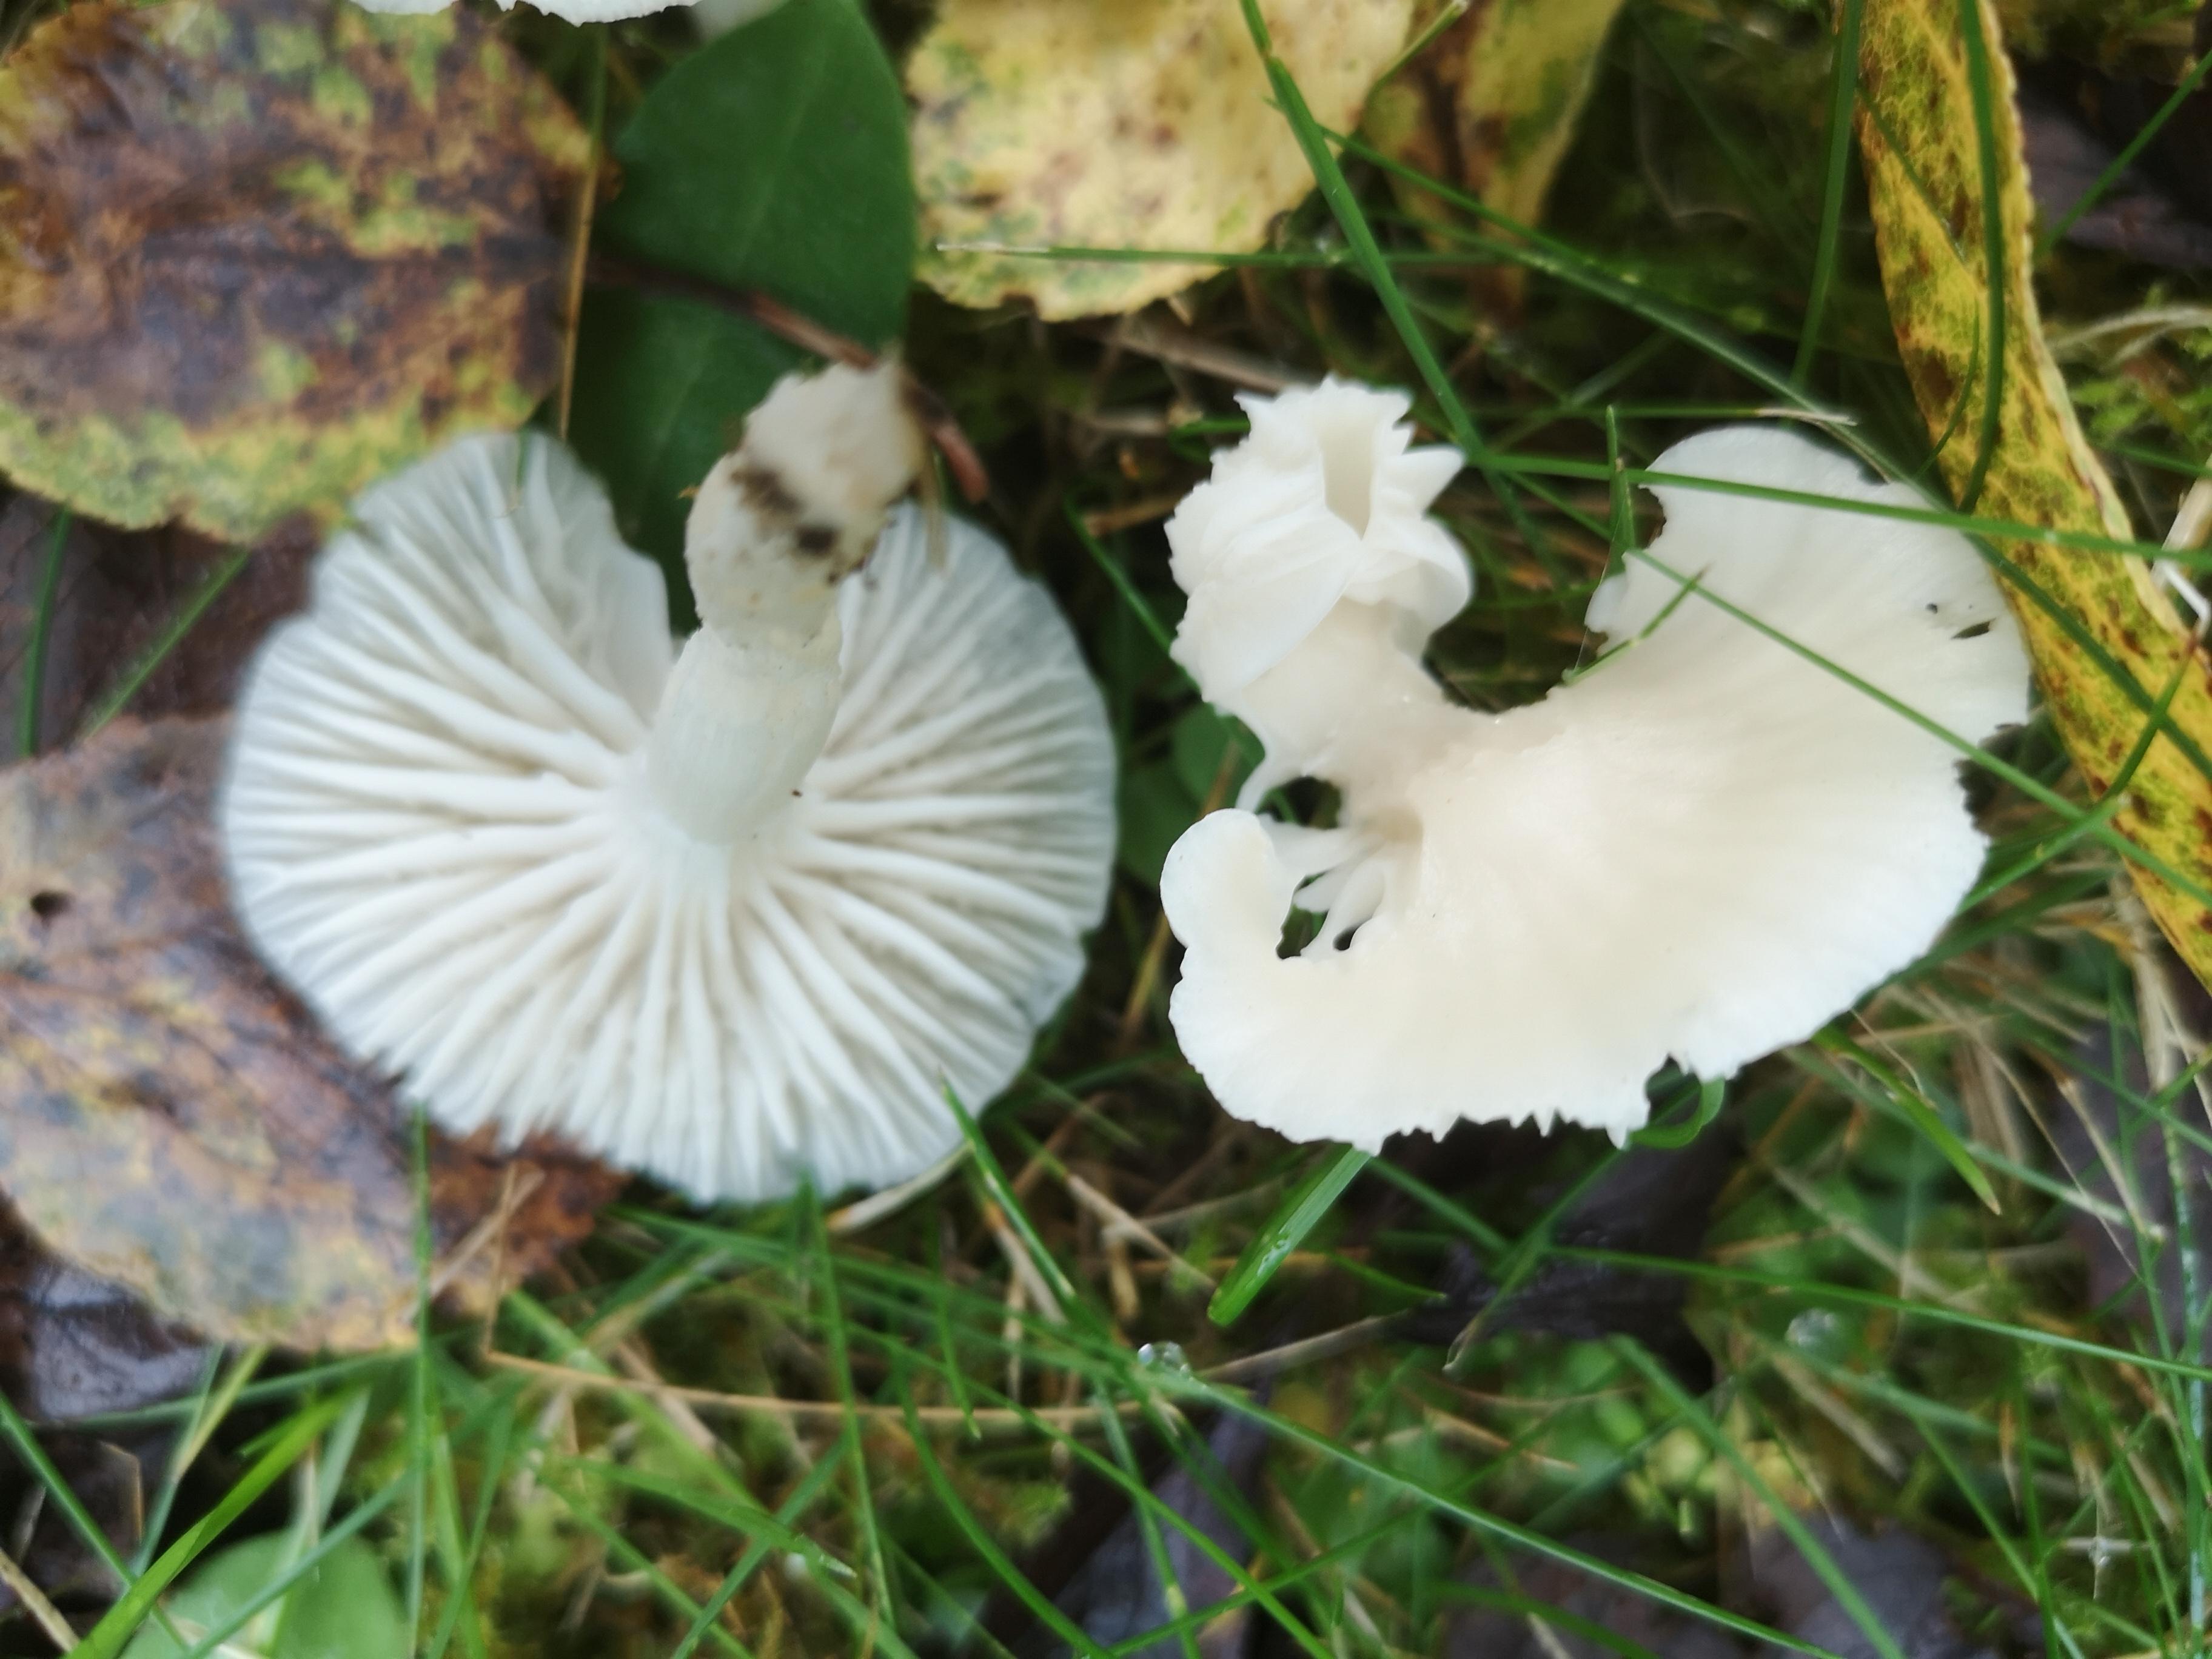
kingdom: Fungi
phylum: Basidiomycota
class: Agaricomycetes
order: Agaricales
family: Hygrophoraceae
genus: Cuphophyllus
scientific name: Cuphophyllus virgineus
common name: snehvid vokshat
